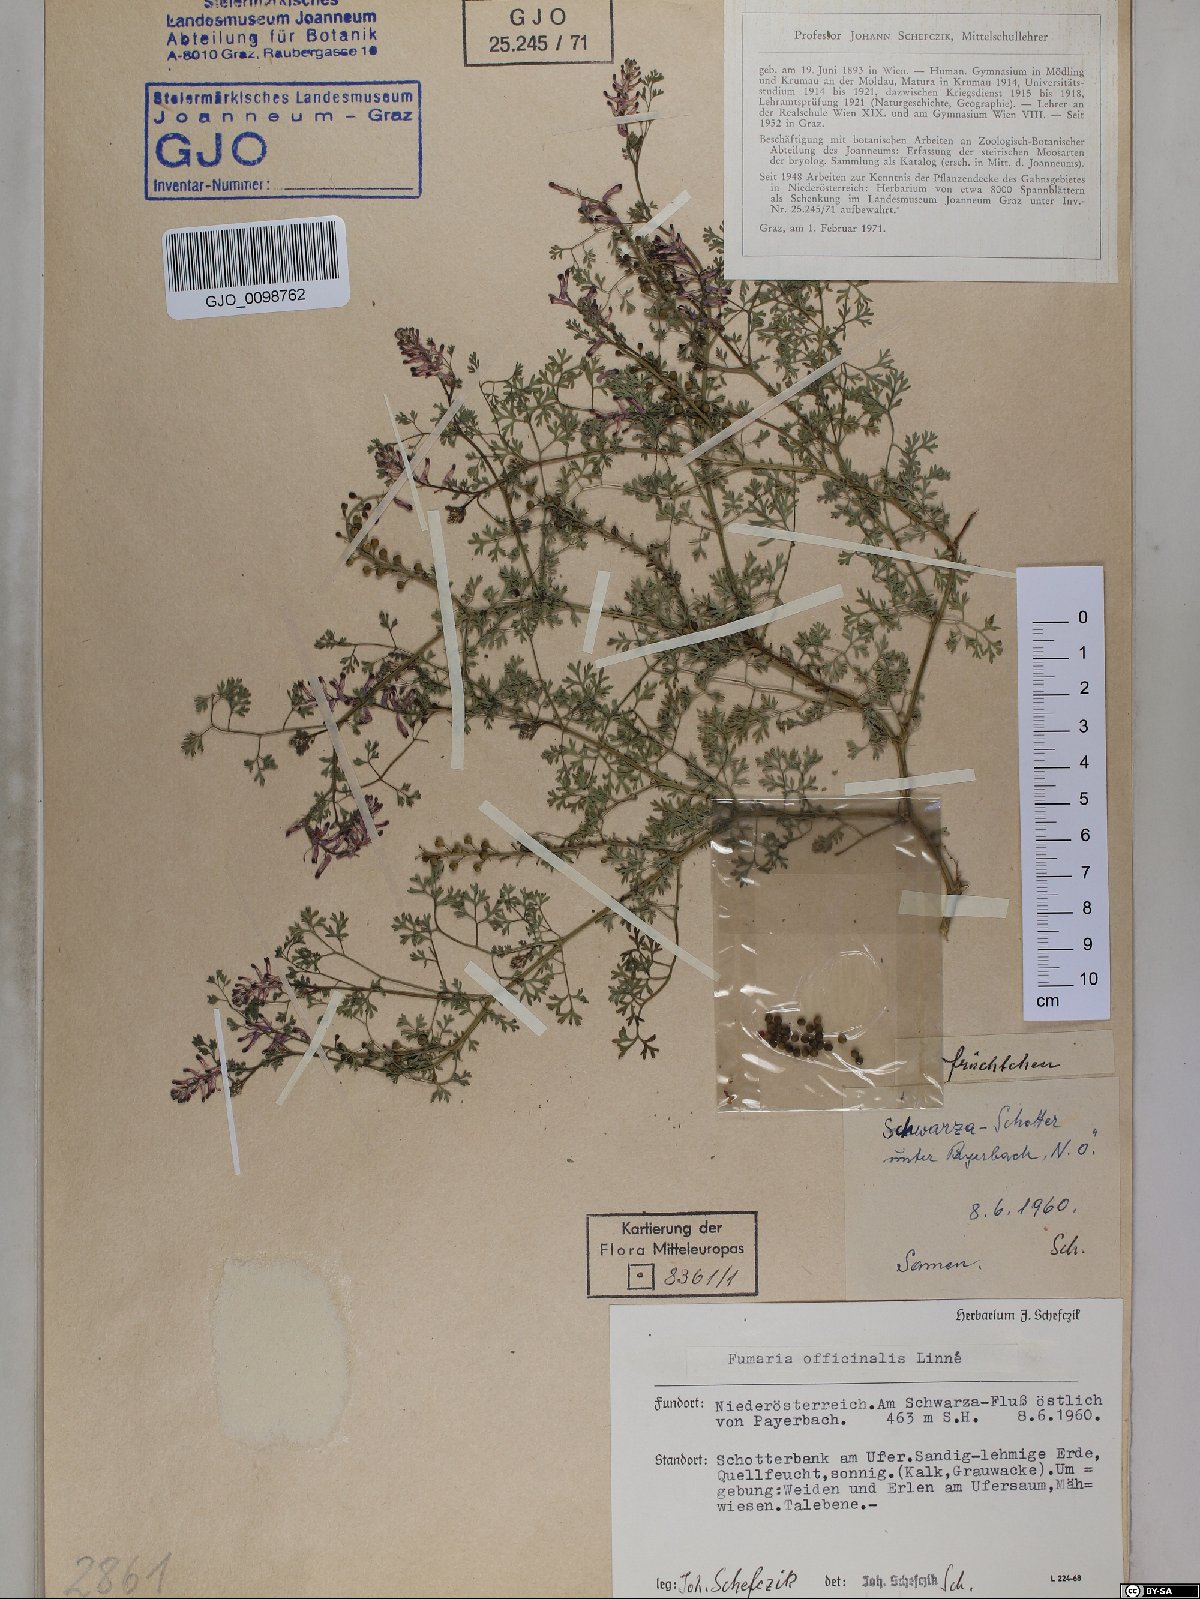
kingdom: Plantae
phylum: Tracheophyta
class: Magnoliopsida
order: Ranunculales
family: Papaveraceae
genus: Fumaria
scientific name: Fumaria officinalis
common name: Common fumitory
